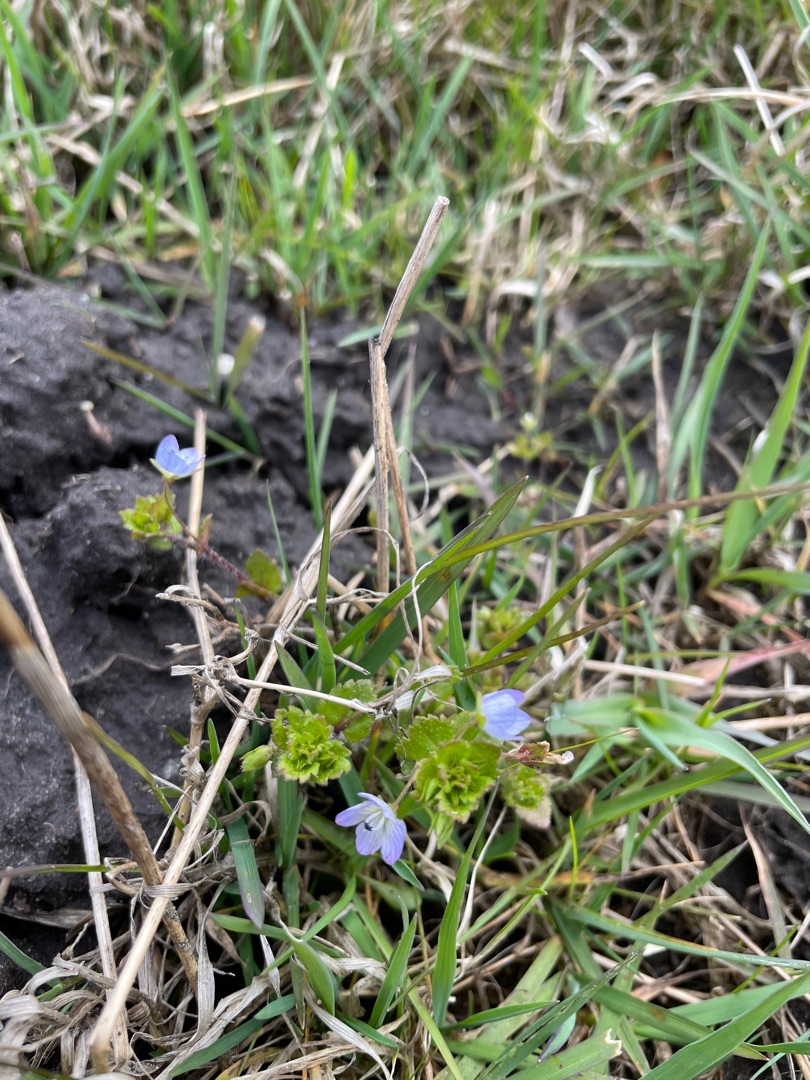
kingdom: Plantae
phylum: Tracheophyta
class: Magnoliopsida
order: Lamiales
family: Plantaginaceae
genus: Veronica
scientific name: Veronica persica
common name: Storkronet ærenpris
